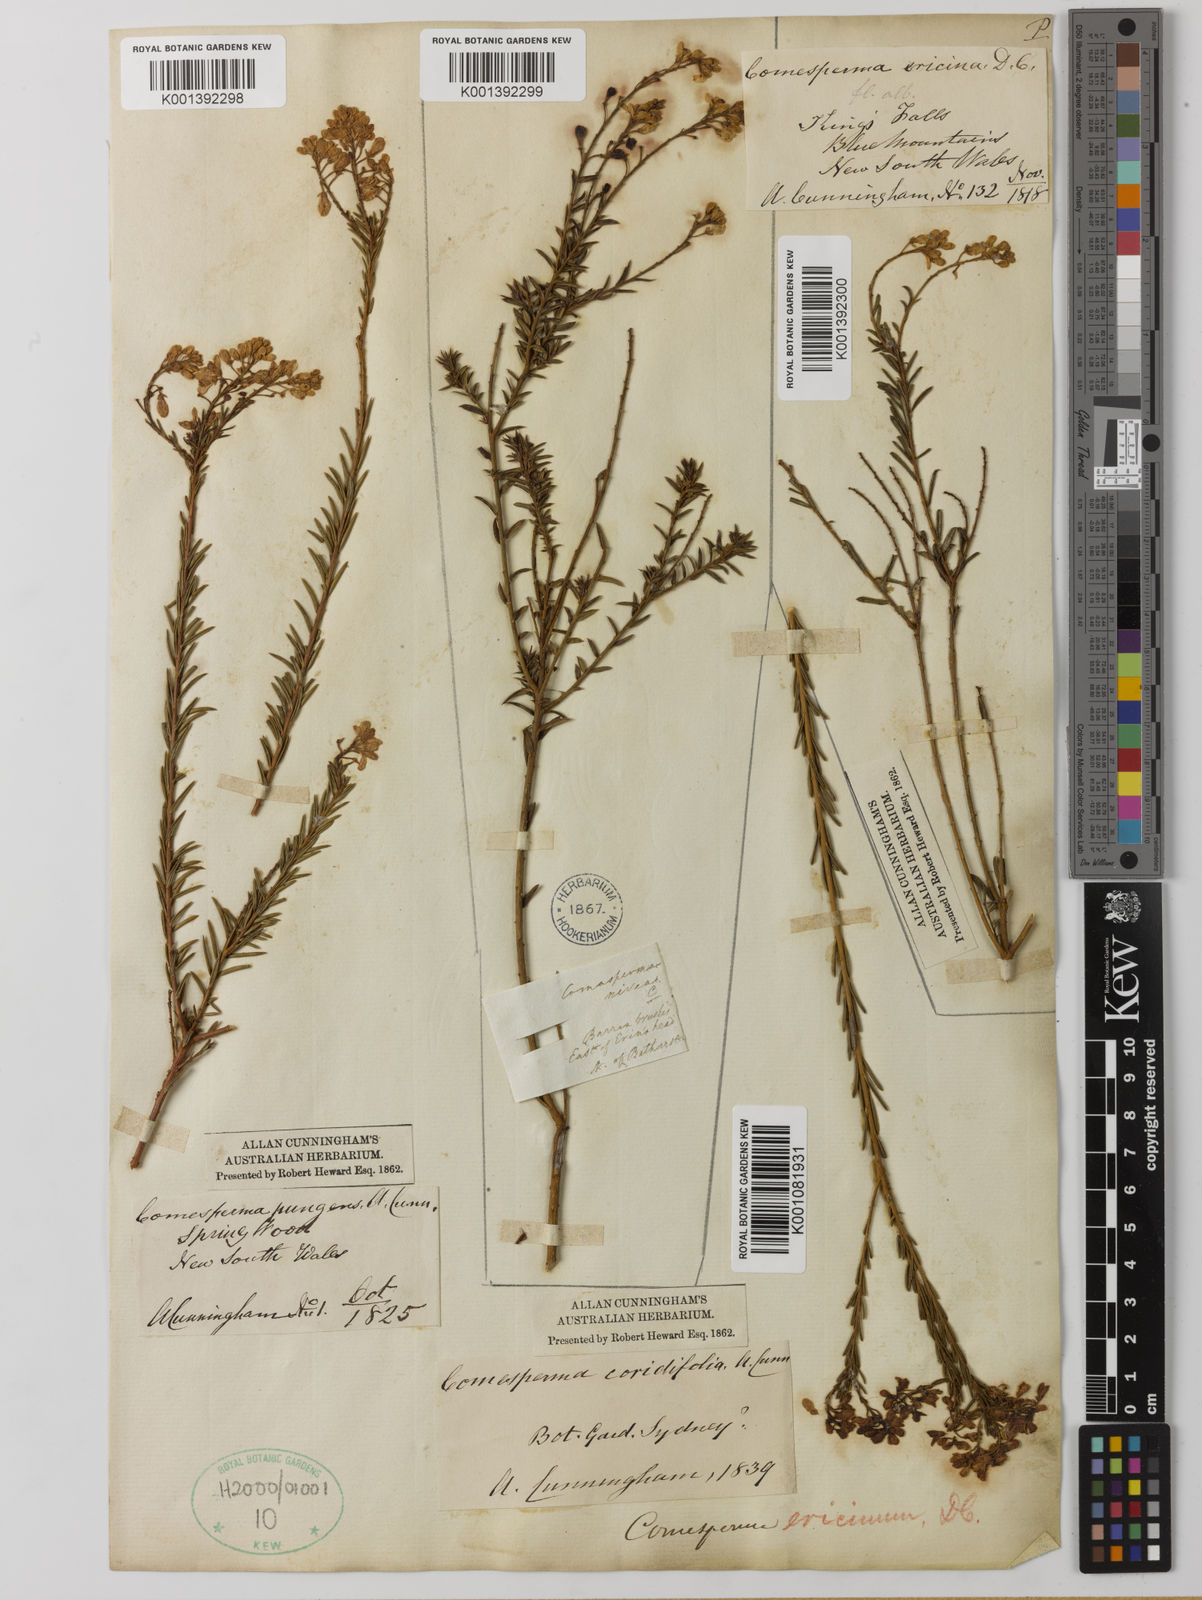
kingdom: Plantae
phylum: Tracheophyta
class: Magnoliopsida
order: Fabales
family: Polygalaceae
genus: Comesperma
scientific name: Comesperma
